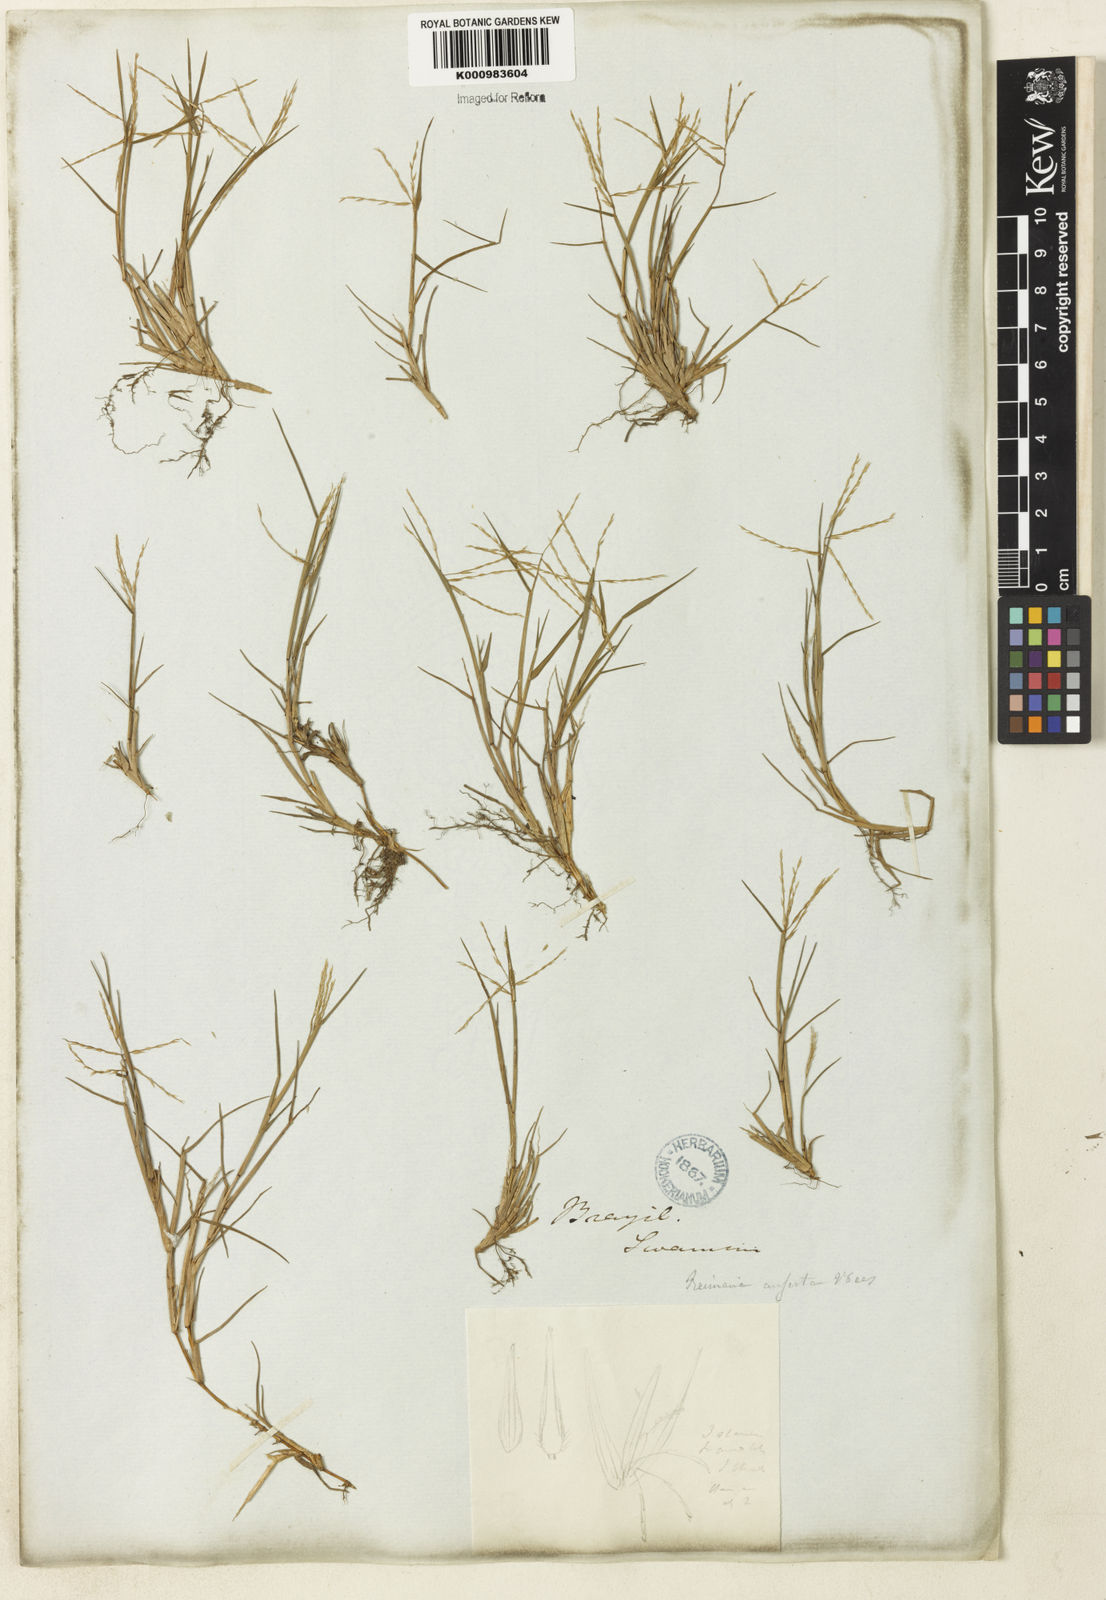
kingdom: Plantae
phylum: Tracheophyta
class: Liliopsida
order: Poales
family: Poaceae
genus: Paspalum
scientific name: Paspalum
